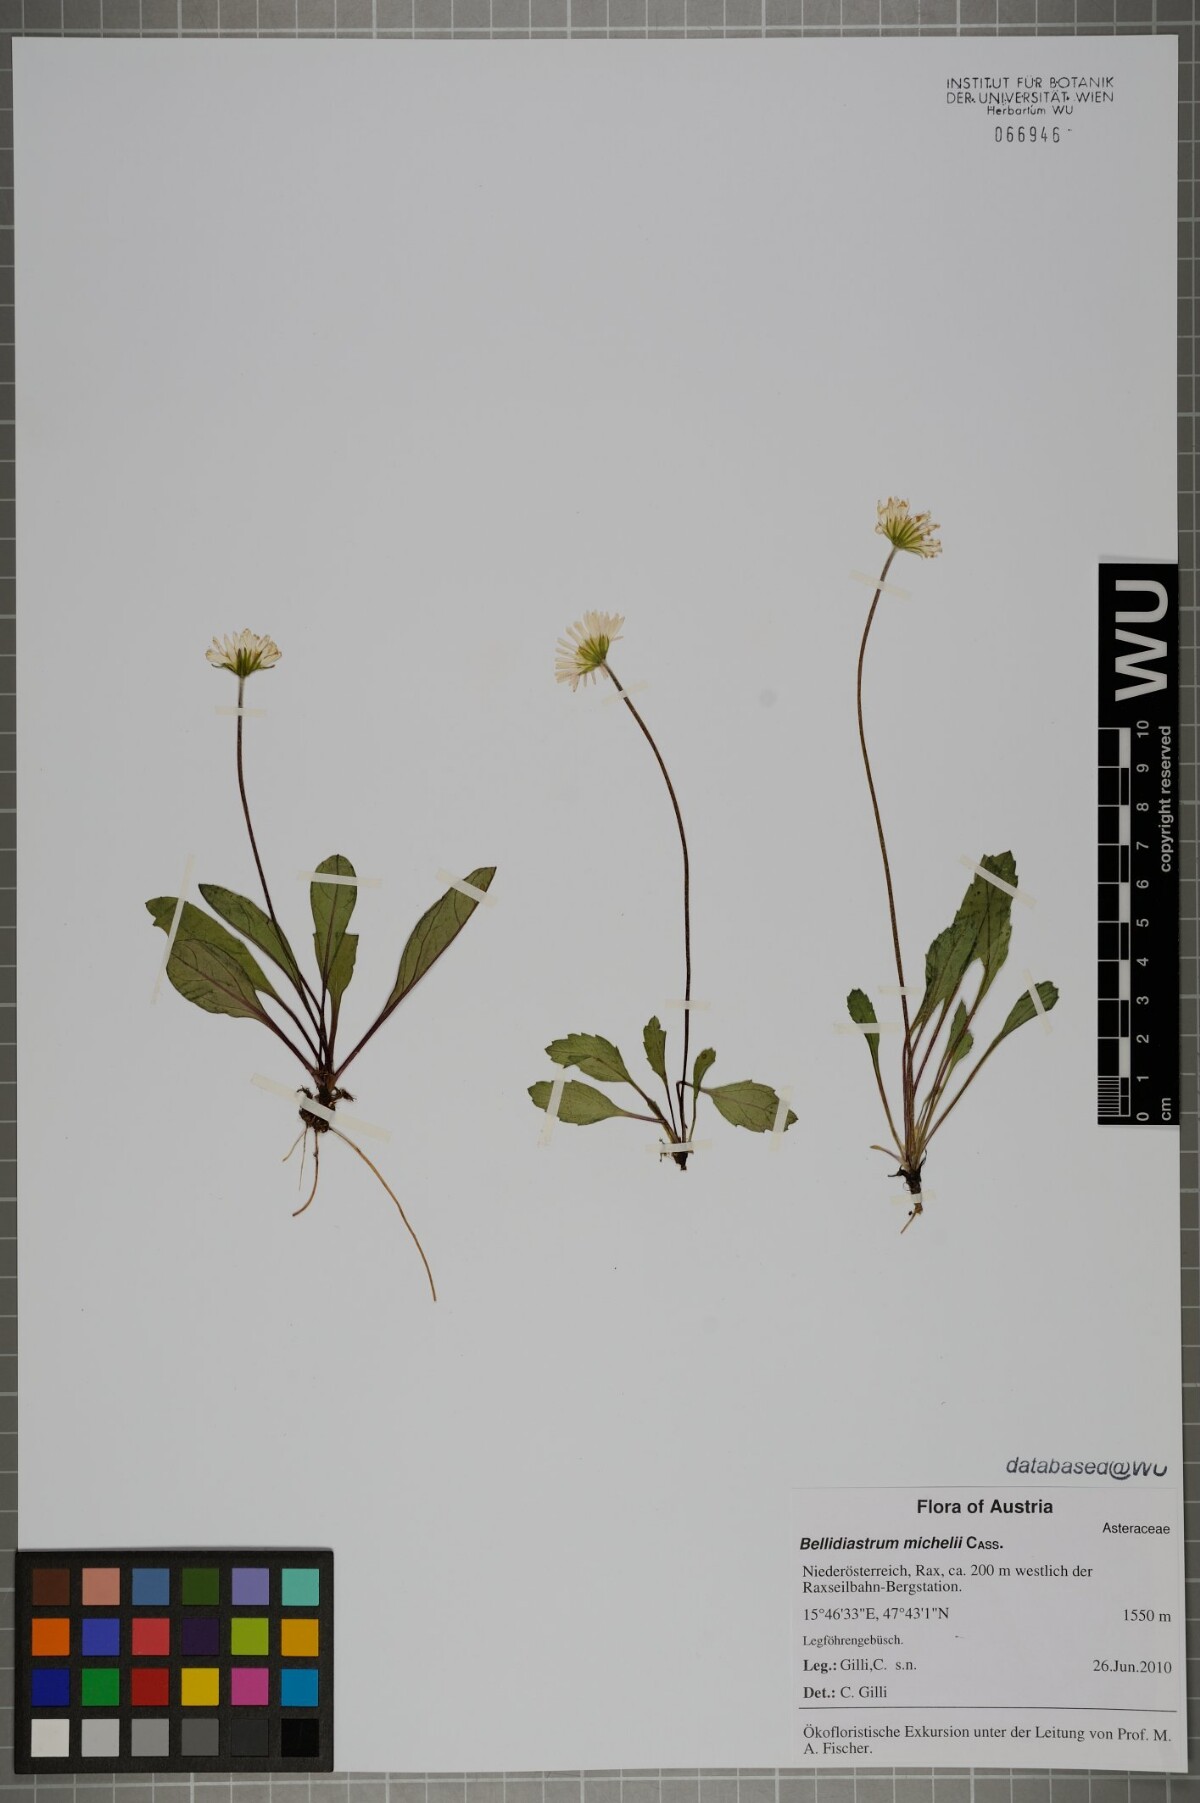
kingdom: Plantae
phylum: Tracheophyta
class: Magnoliopsida
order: Asterales
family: Asteraceae
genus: Bellidiastrum
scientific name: Bellidiastrum michelii
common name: Daisy-star aster
